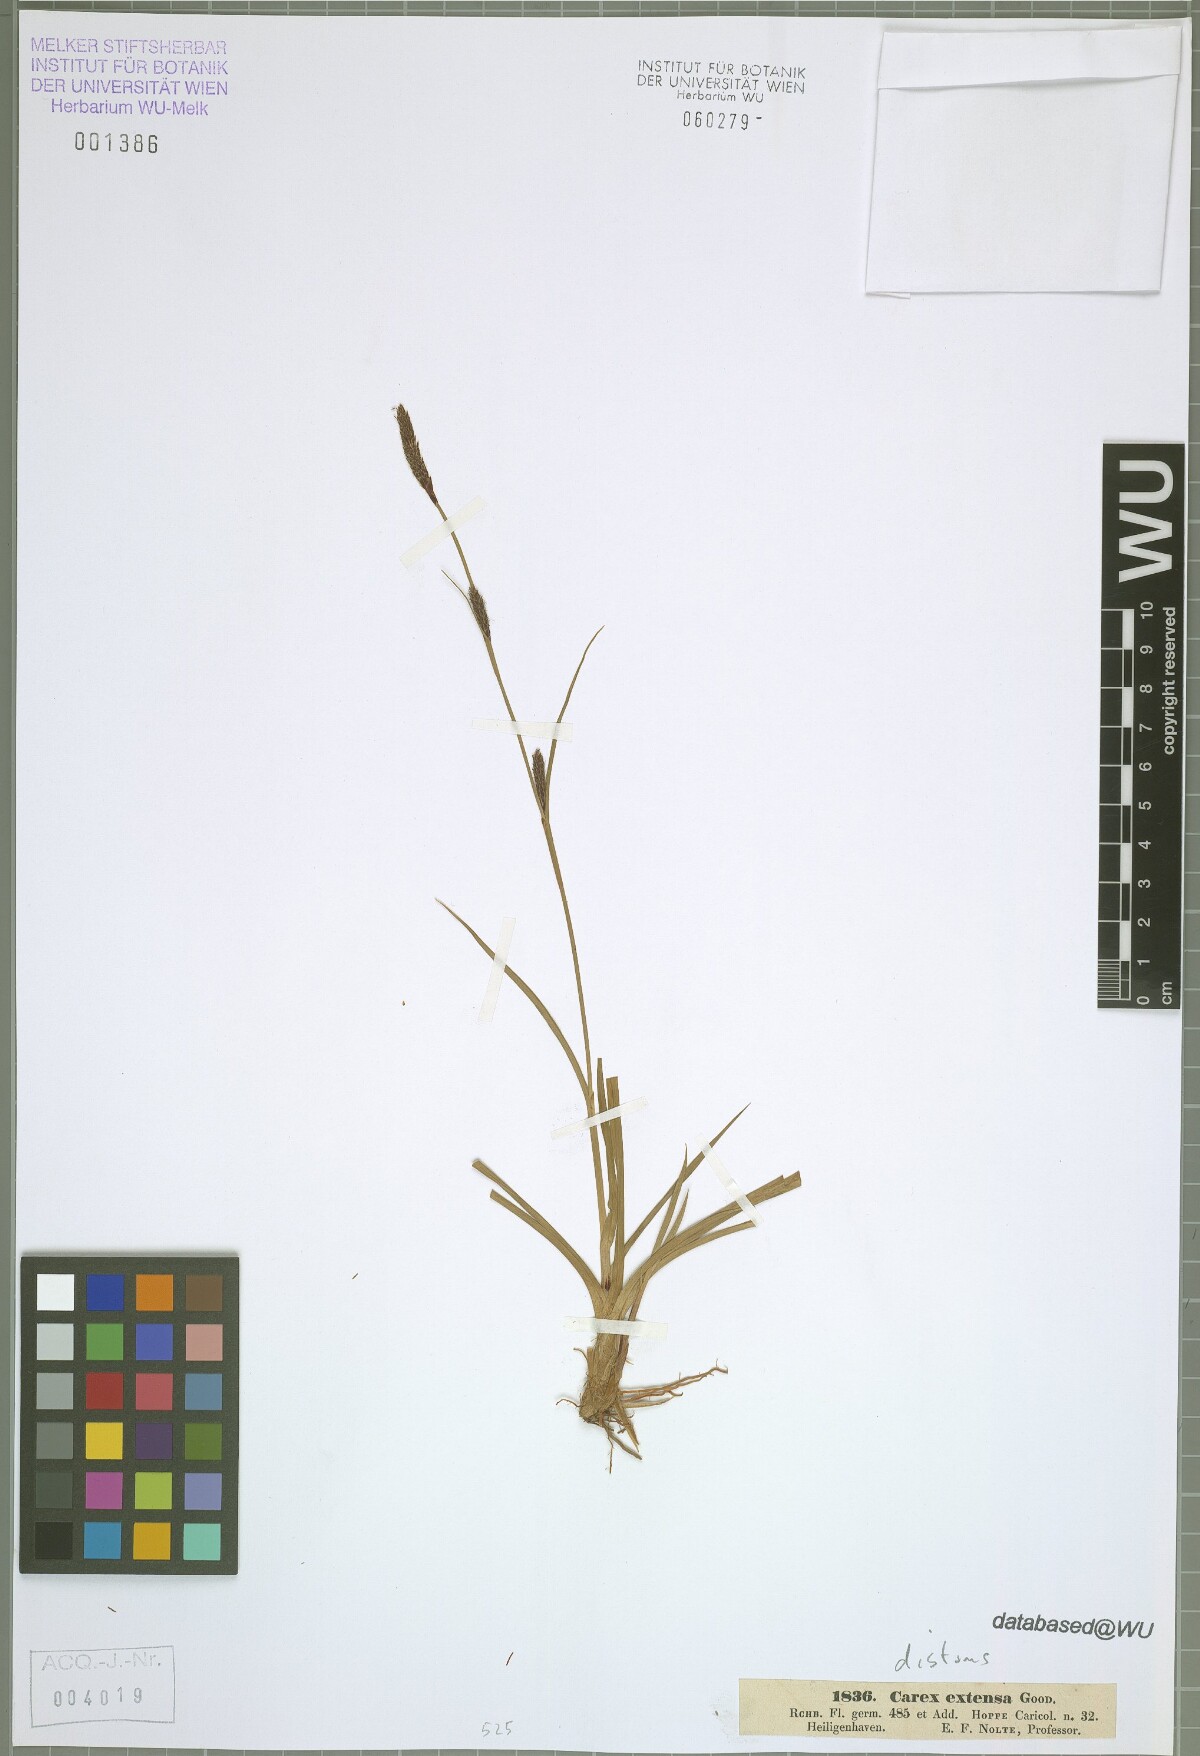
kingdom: Plantae
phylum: Tracheophyta
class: Liliopsida
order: Poales
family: Cyperaceae
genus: Carex
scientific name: Carex distans
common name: Distant sedge
